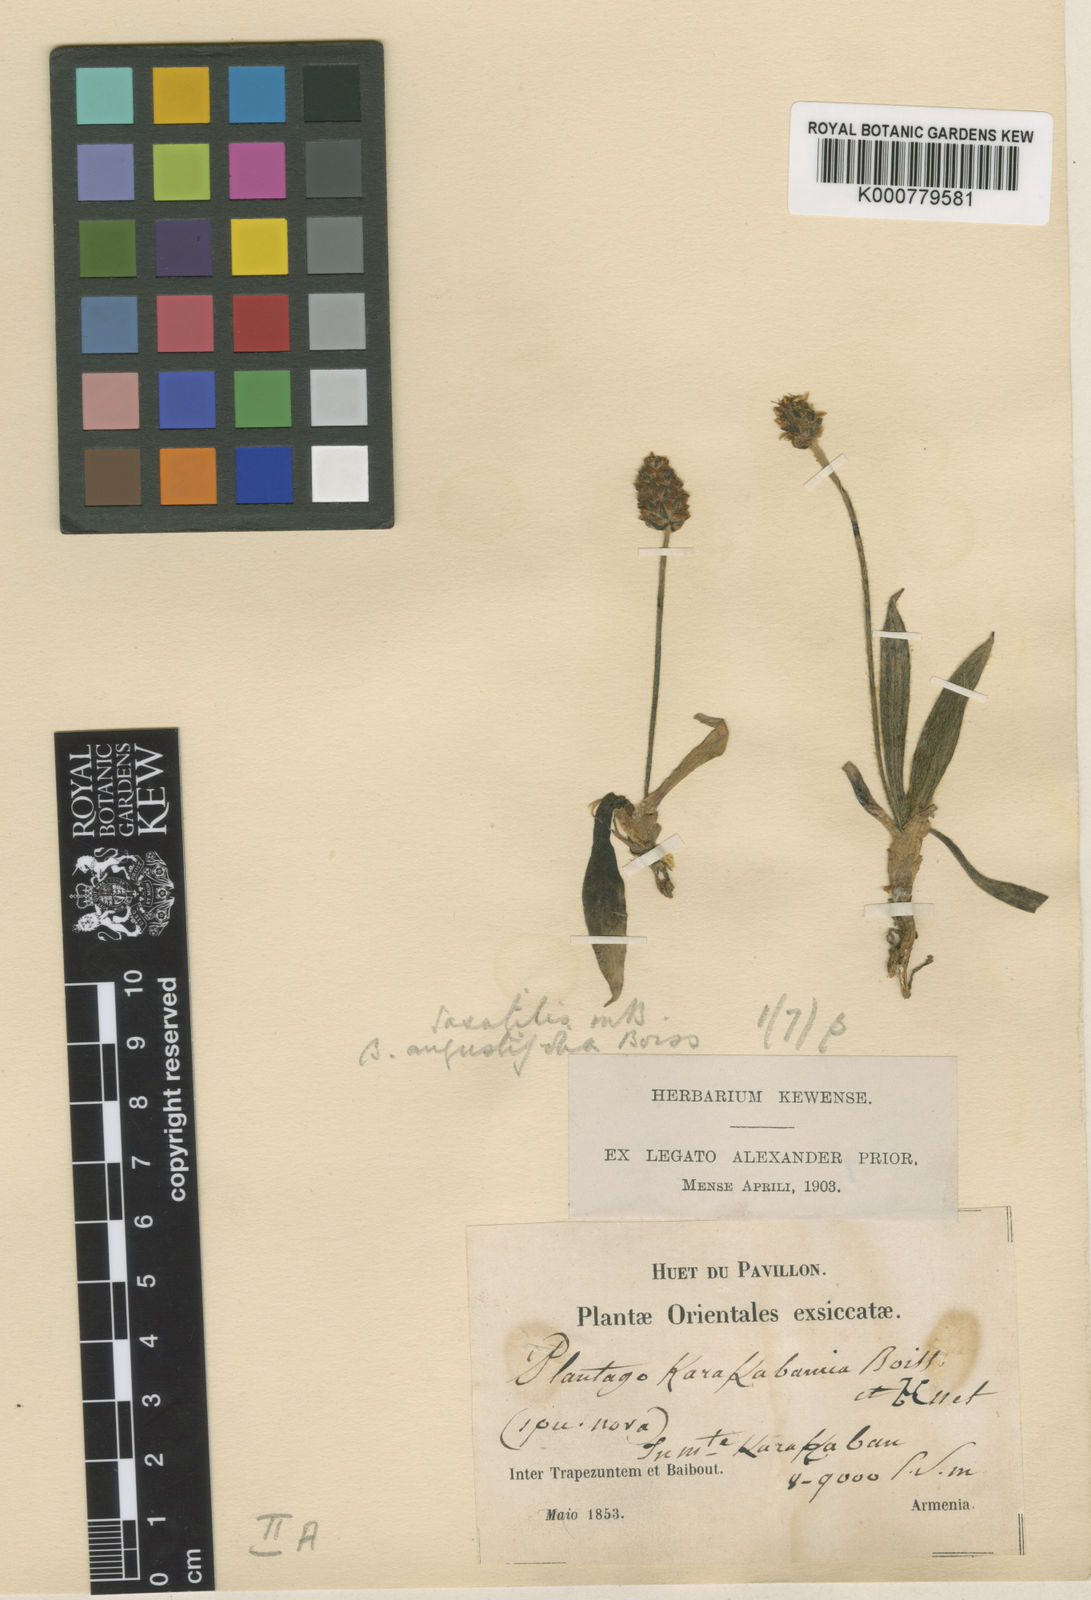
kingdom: Plantae
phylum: Tracheophyta
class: Magnoliopsida
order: Lamiales
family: Plantaginaceae
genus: Plantago
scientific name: Plantago atrata
